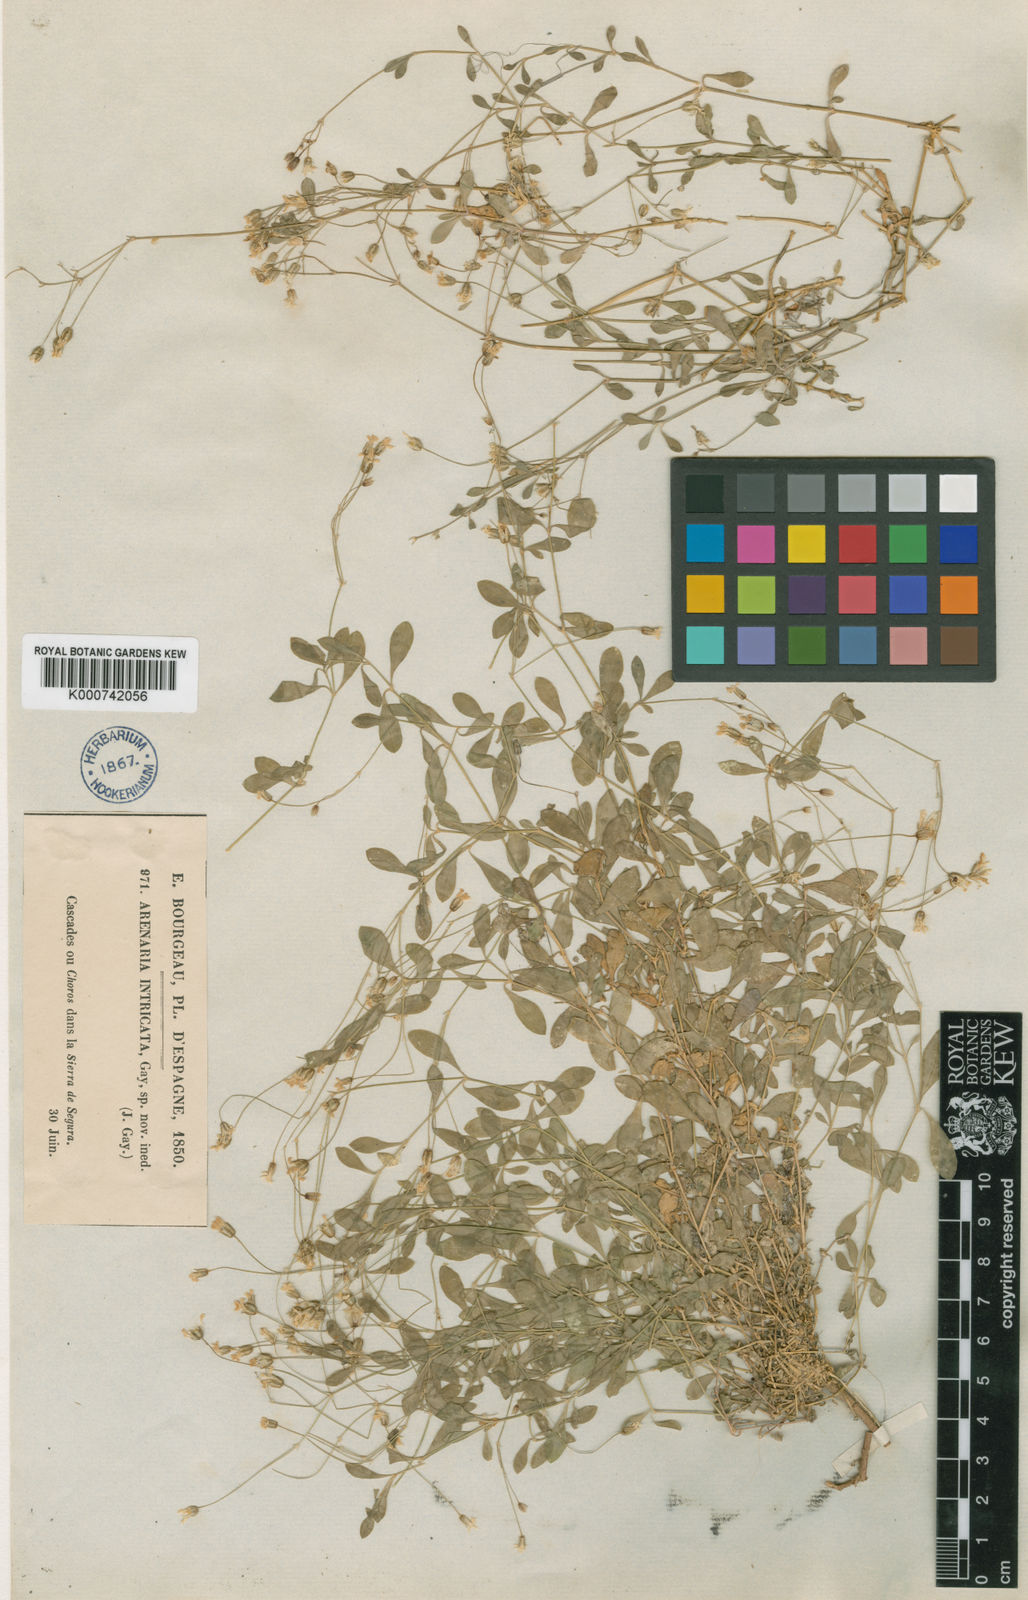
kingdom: Plantae
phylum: Tracheophyta
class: Magnoliopsida
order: Caryophyllales
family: Caryophyllaceae
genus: Arenaria
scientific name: Arenaria suffruticosa
